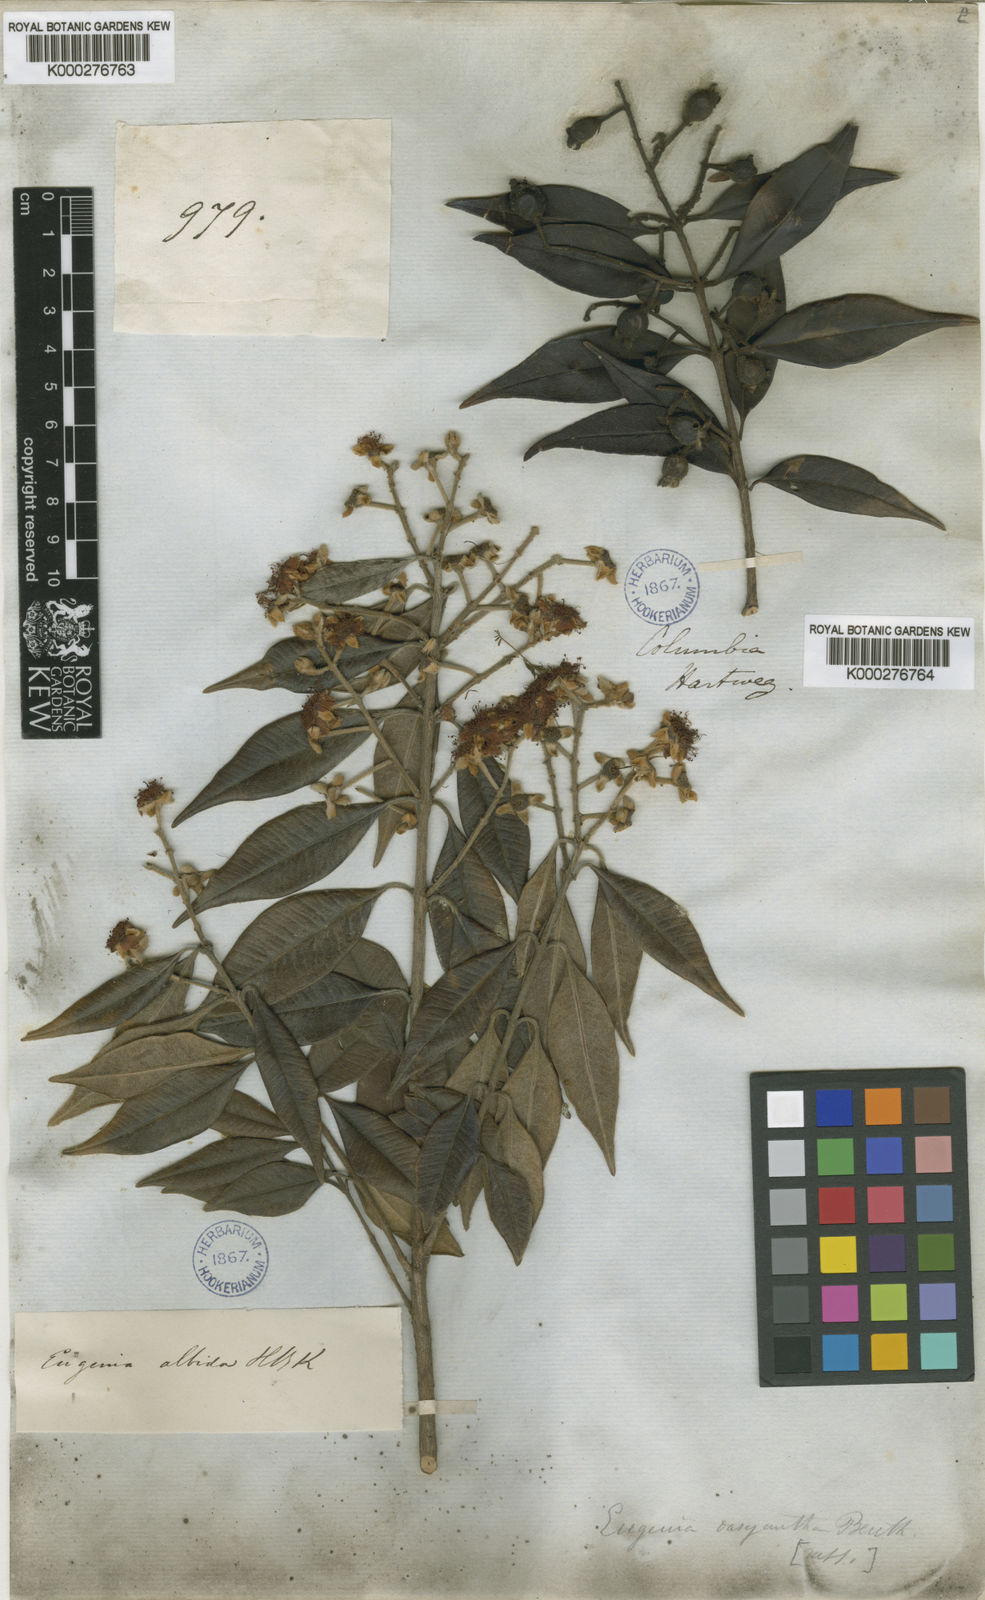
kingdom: Plantae
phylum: Tracheophyta
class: Magnoliopsida
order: Myrtales
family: Myrtaceae
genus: Eugenia
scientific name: Eugenia biflora
